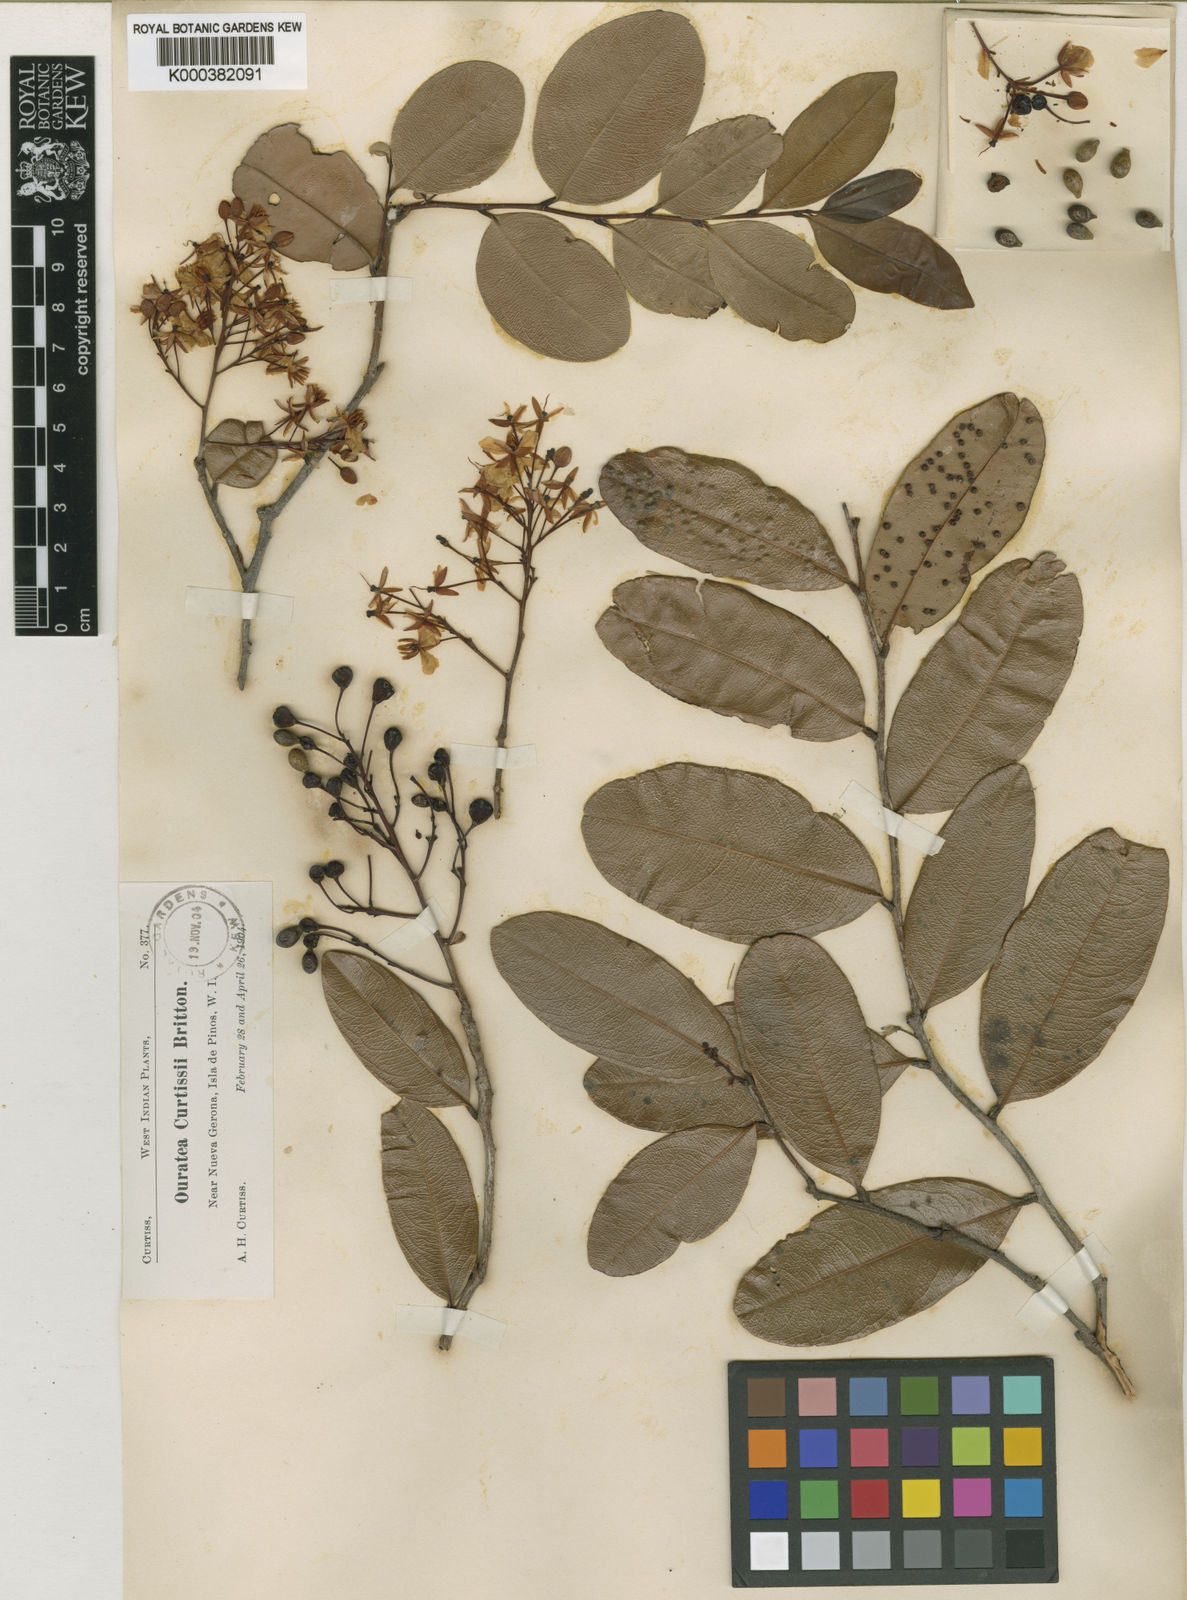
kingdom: Plantae
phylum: Tracheophyta
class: Magnoliopsida
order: Malpighiales
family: Ochnaceae
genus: Ouratea
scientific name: Ouratea
